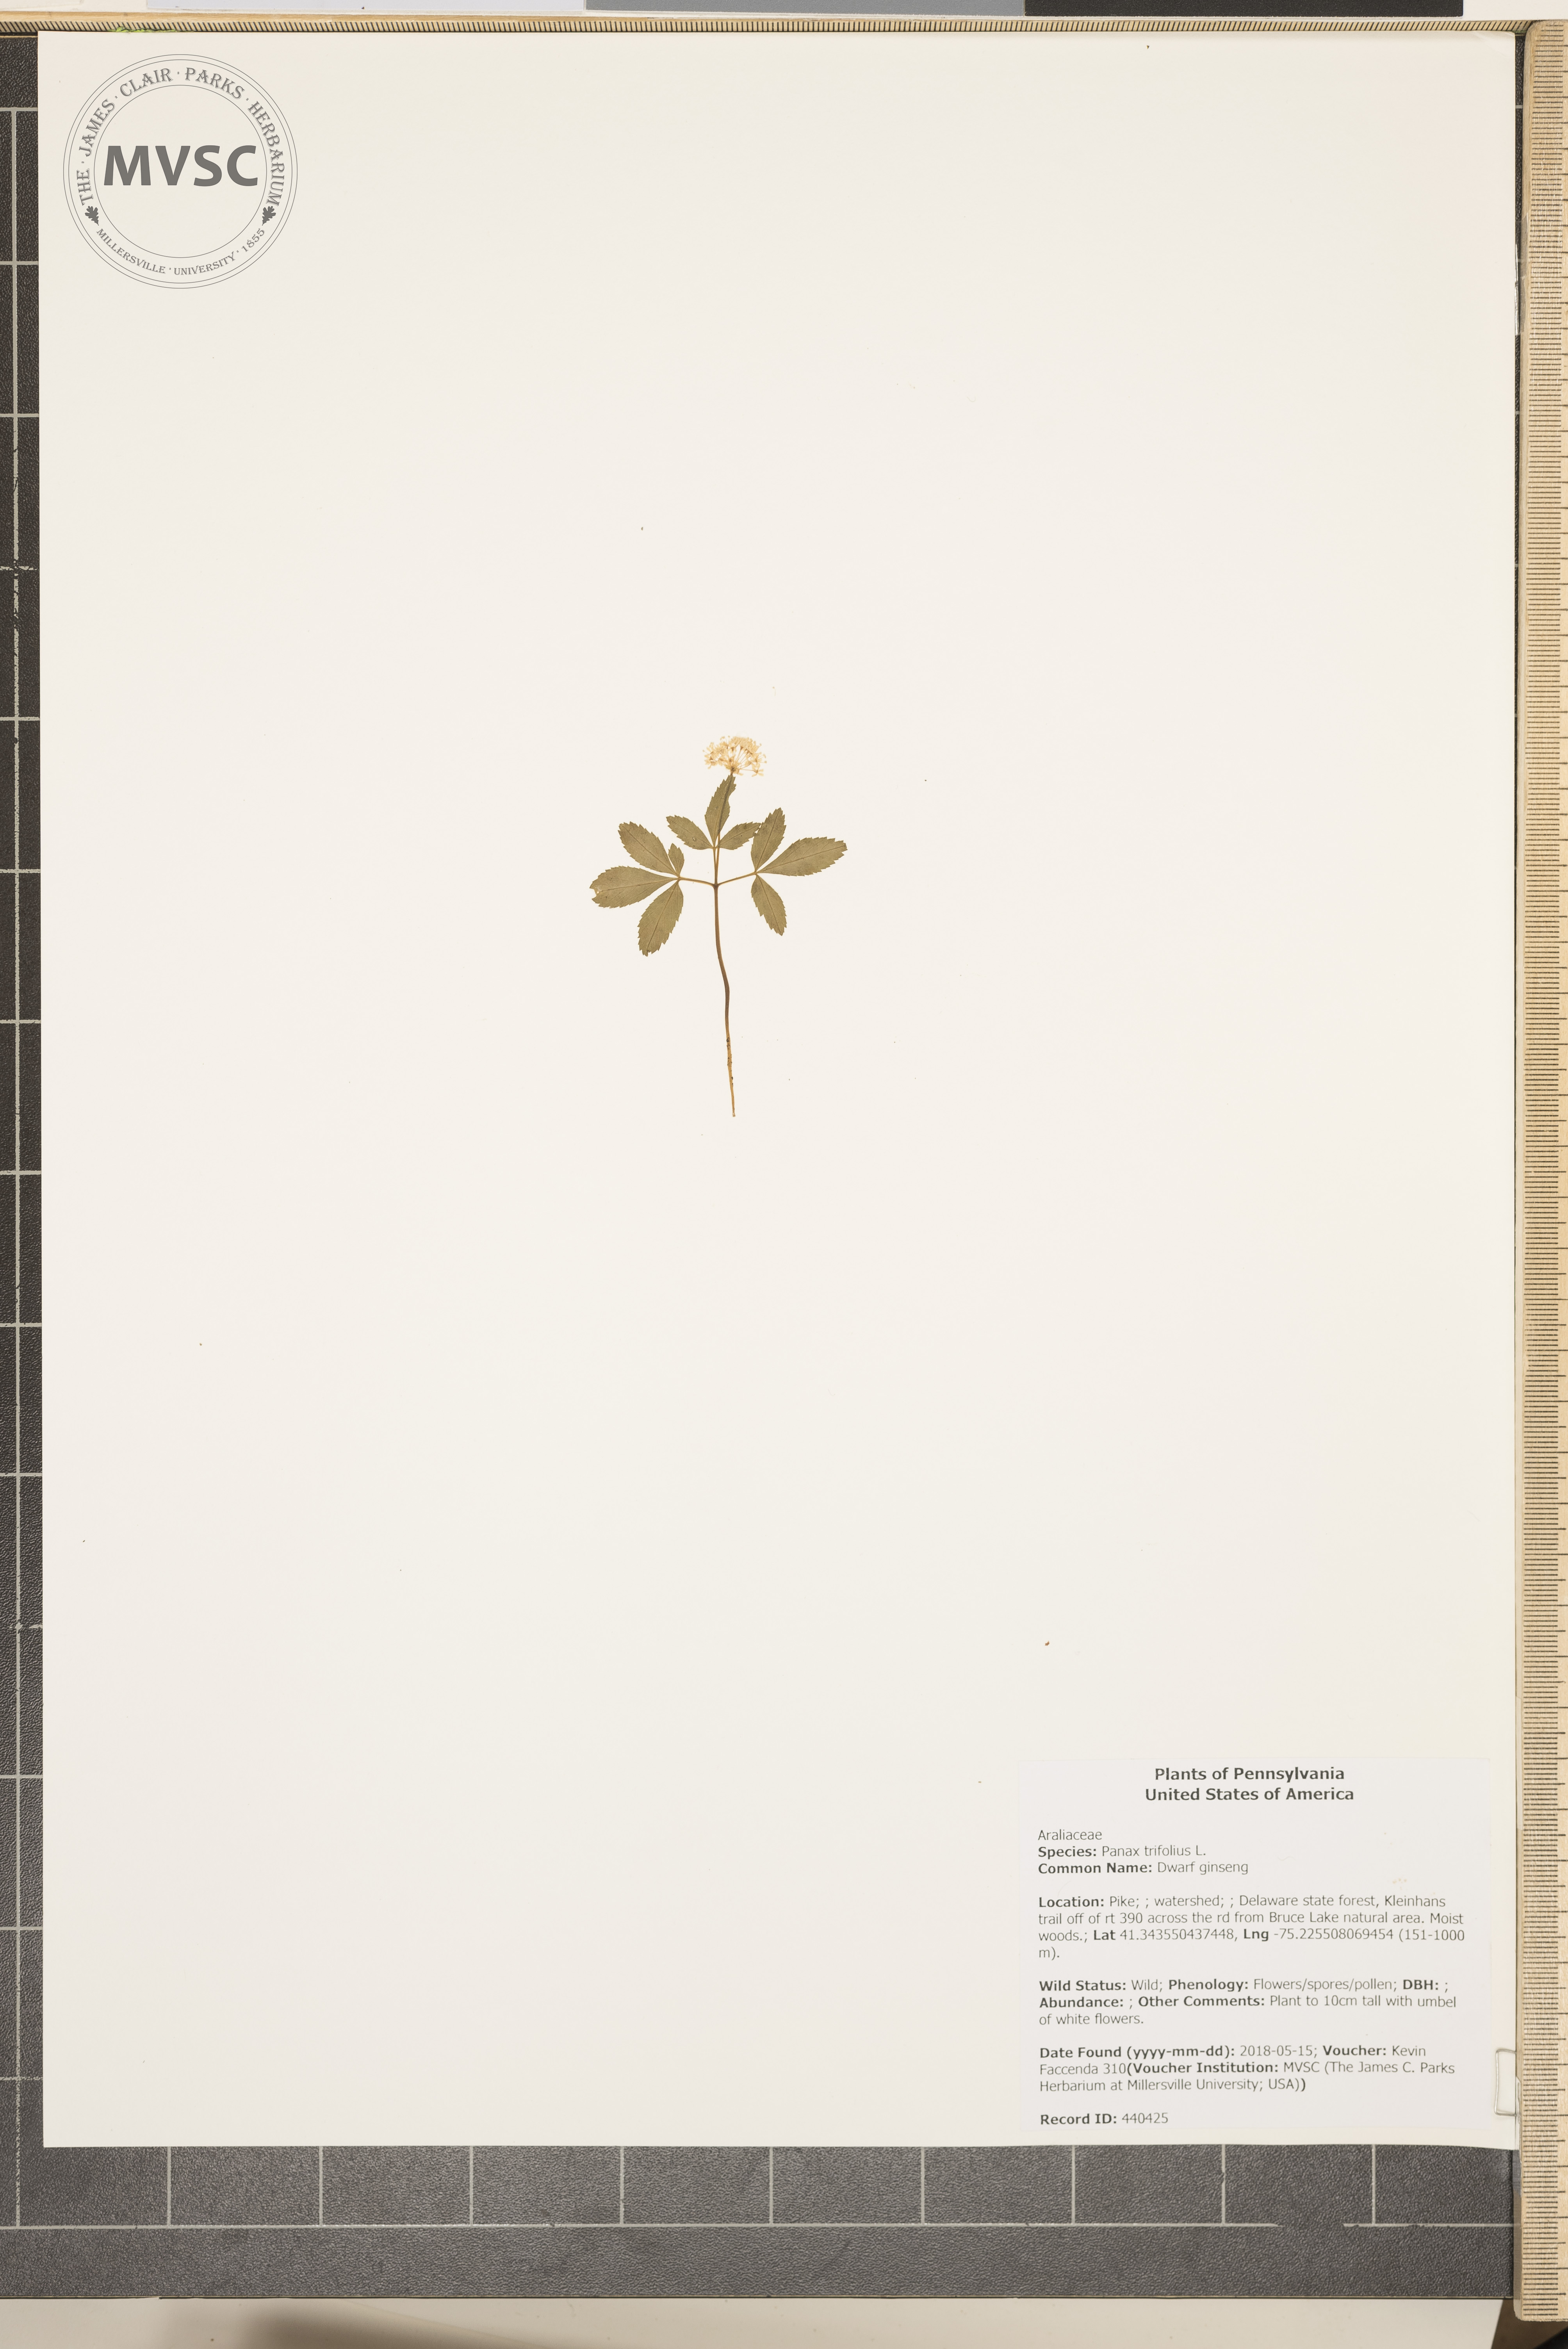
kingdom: Plantae
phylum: Tracheophyta
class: Magnoliopsida
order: Apiales
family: Araliaceae
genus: Panax
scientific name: Panax trifolius
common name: Dwarf ginseng
